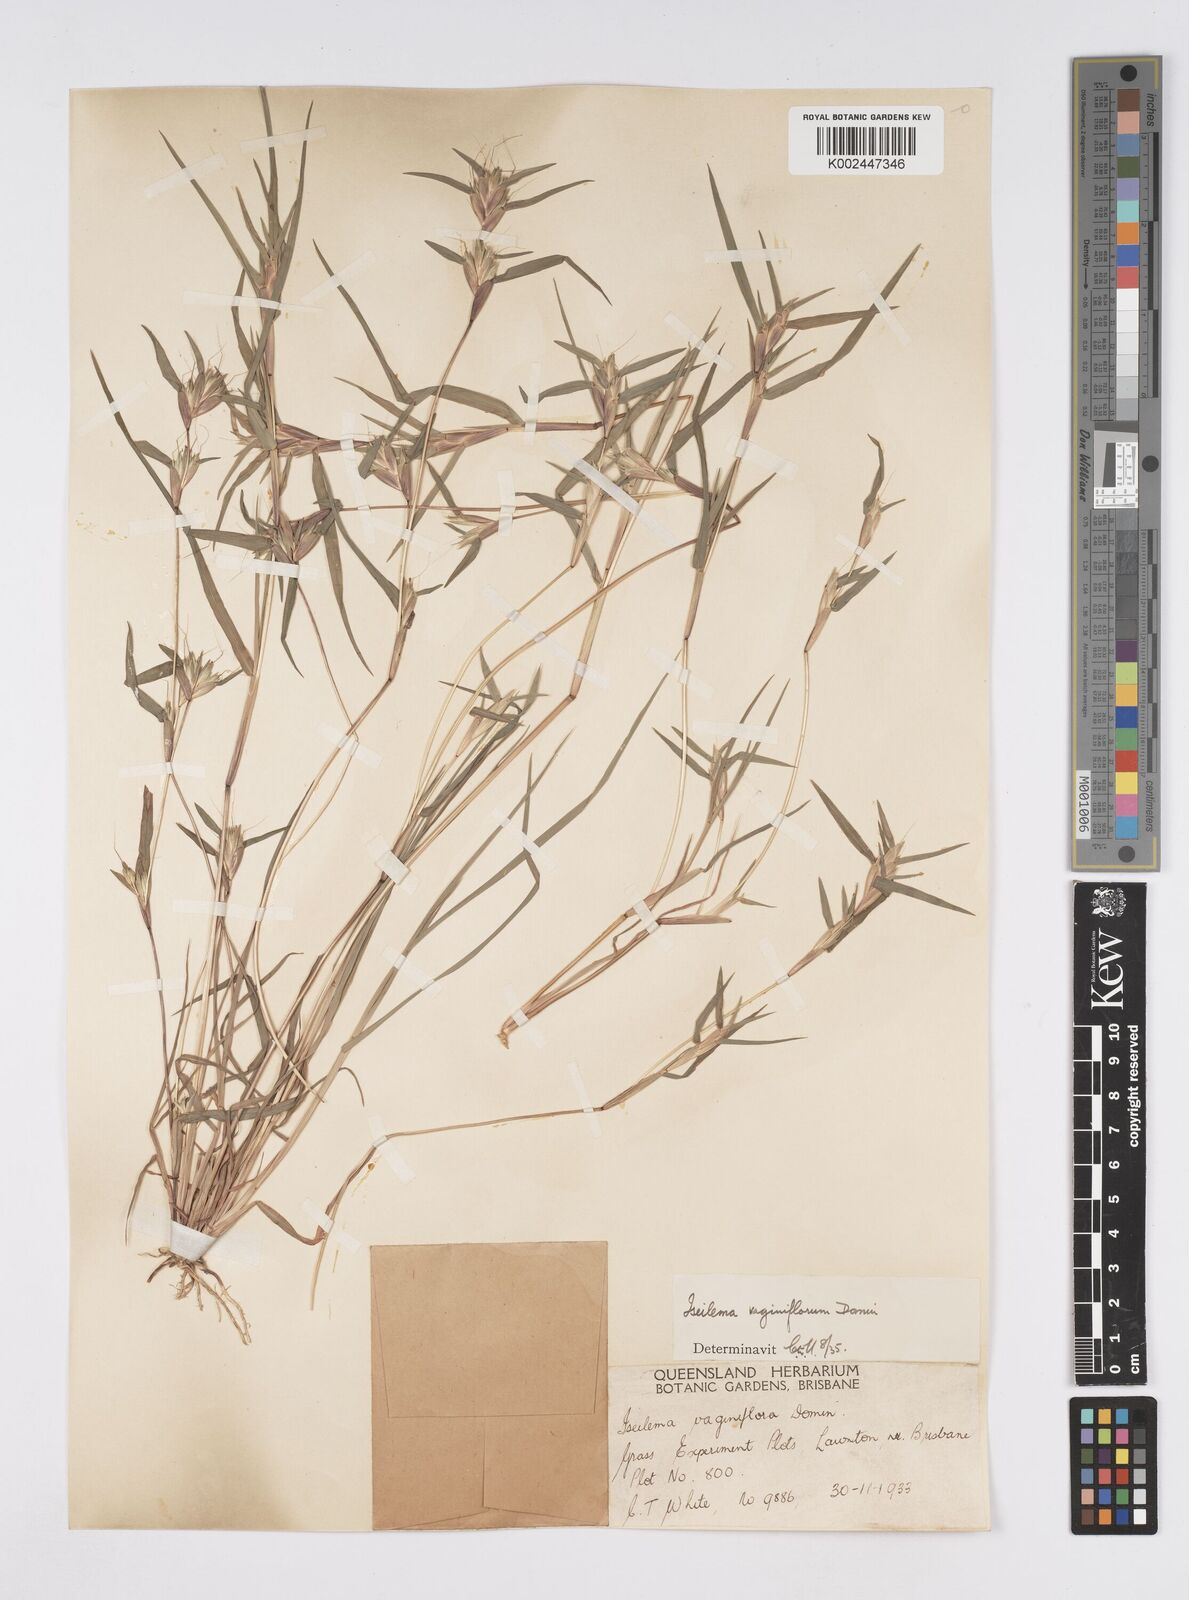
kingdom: Plantae
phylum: Tracheophyta
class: Liliopsida
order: Poales
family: Poaceae
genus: Iseilema
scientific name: Iseilema vaginiflorum
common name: Red flinders grass
